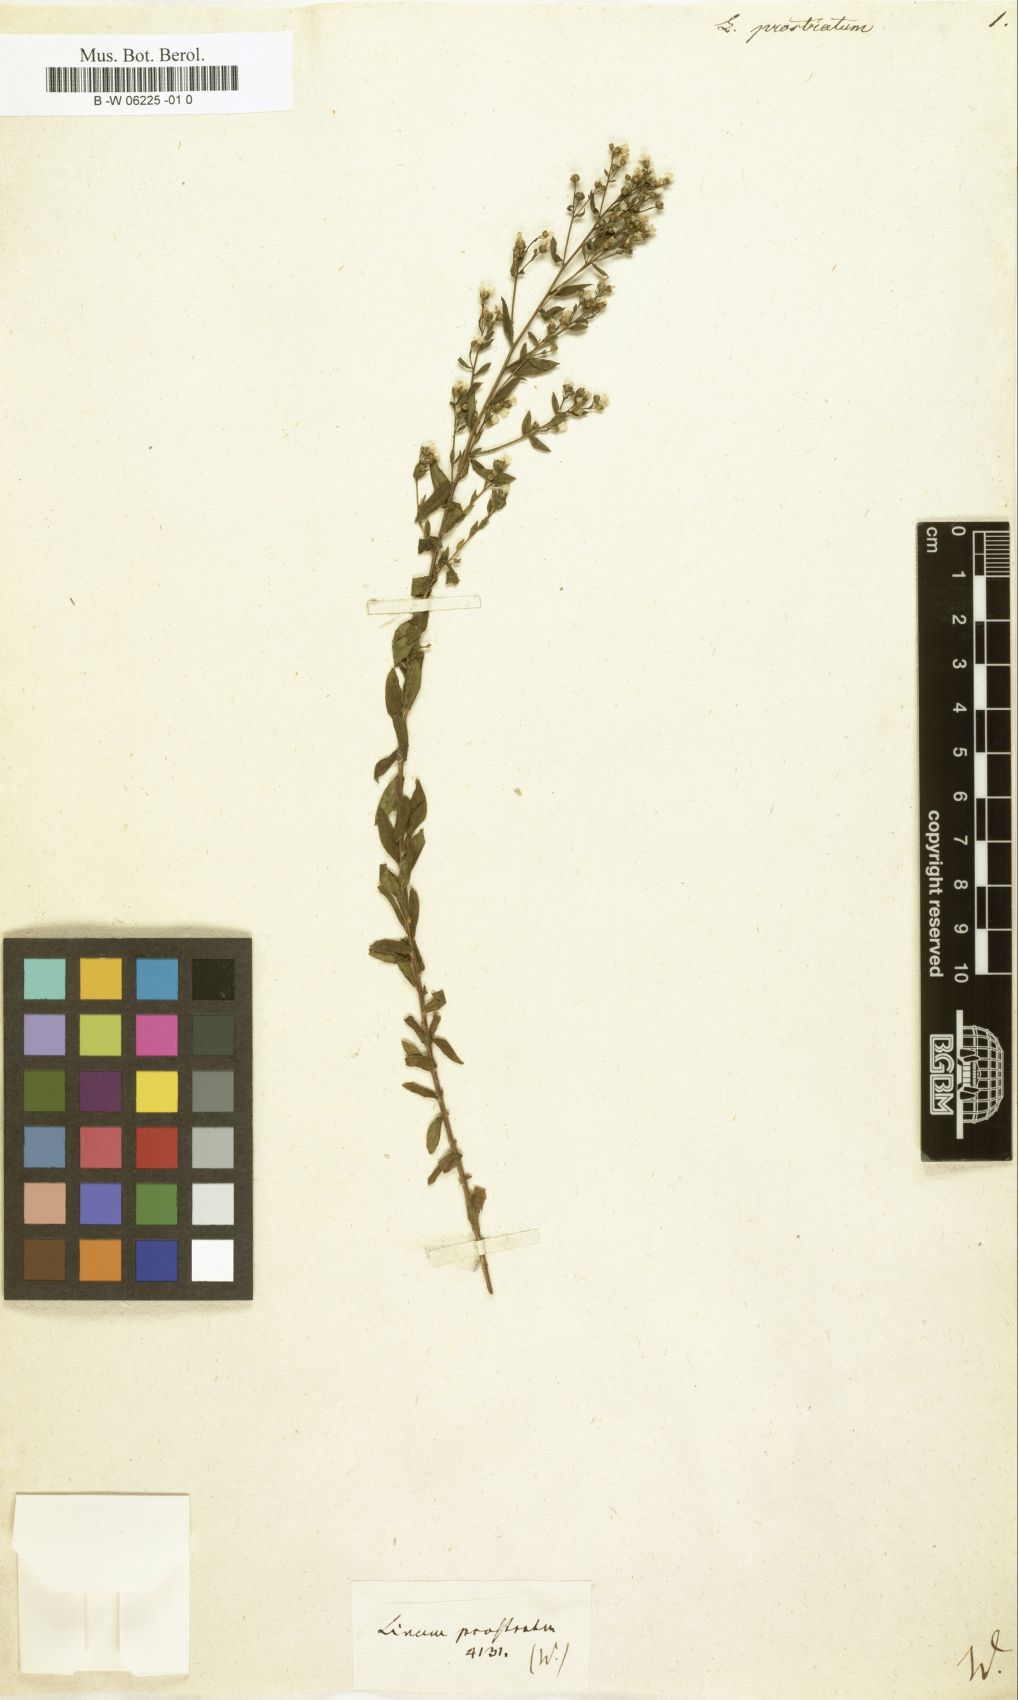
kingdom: Plantae
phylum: Tracheophyta
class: Magnoliopsida
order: Malpighiales
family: Linaceae
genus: Linum
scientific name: Linum prostratum
